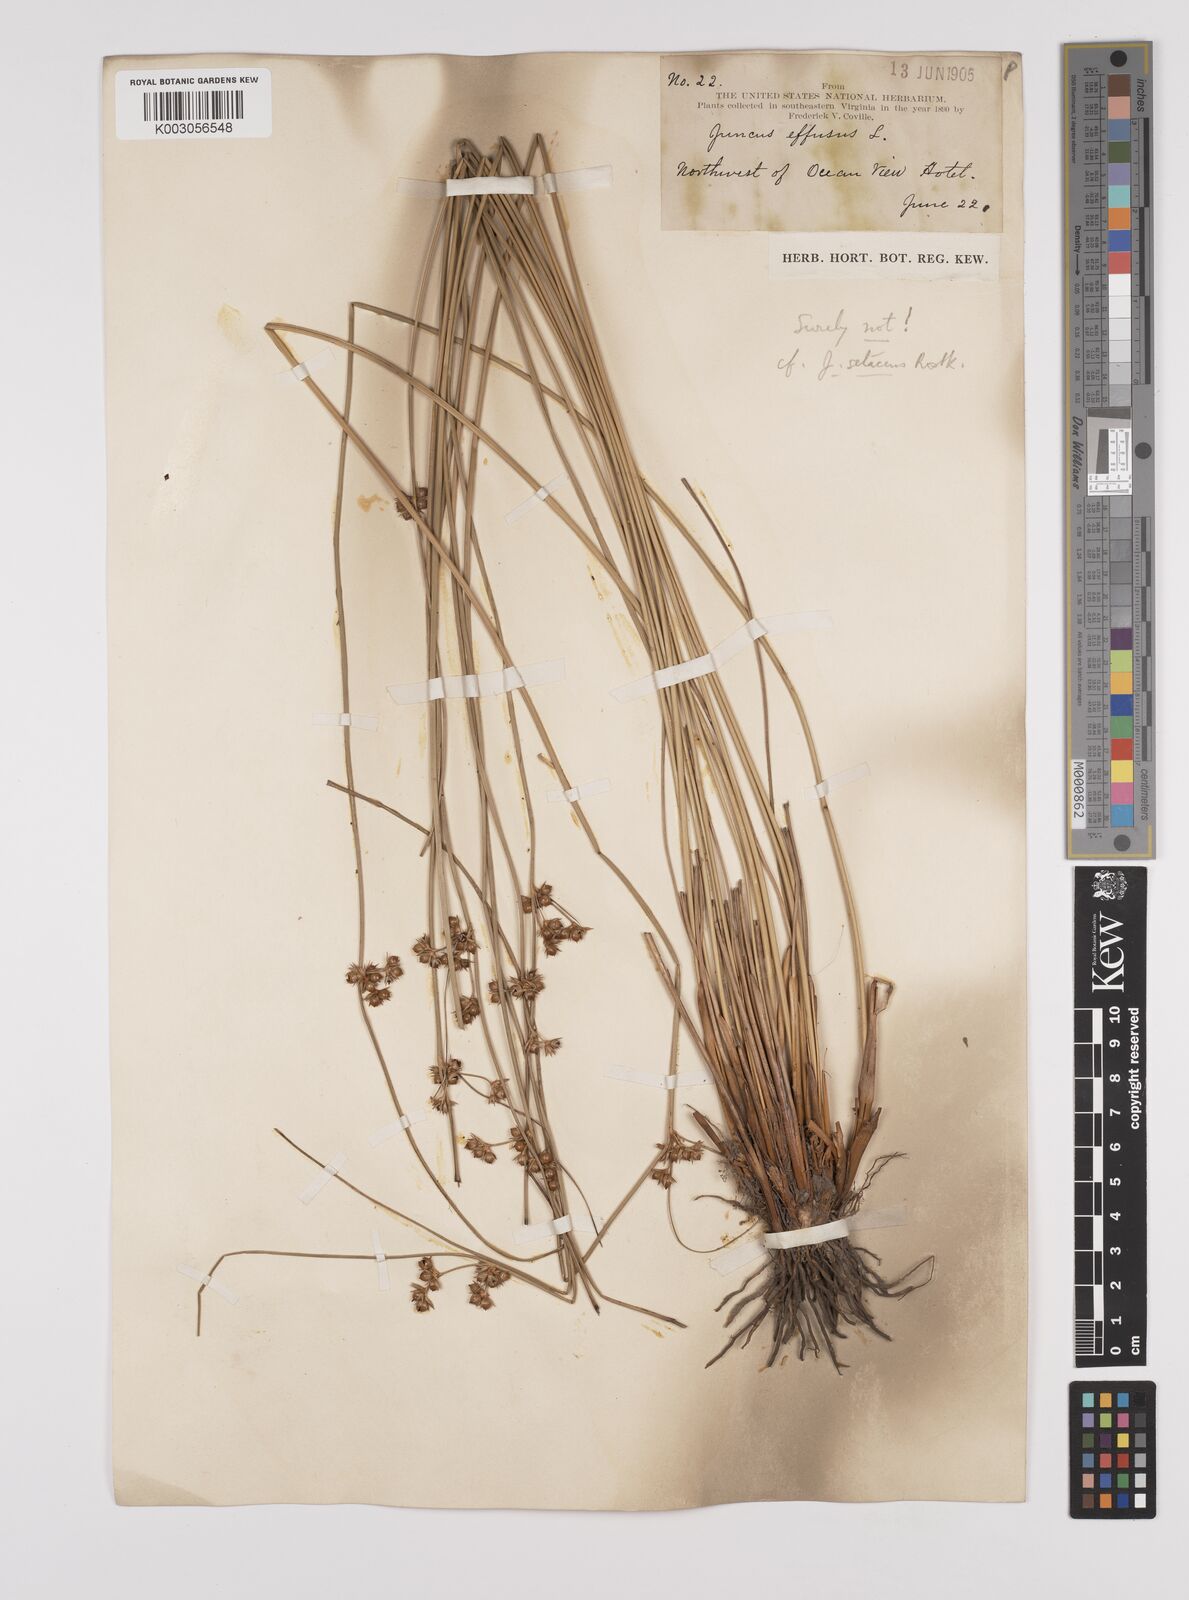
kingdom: Plantae
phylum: Tracheophyta
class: Liliopsida
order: Poales
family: Juncaceae
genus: Juncus
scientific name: Juncus balticus
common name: Baltic rush
